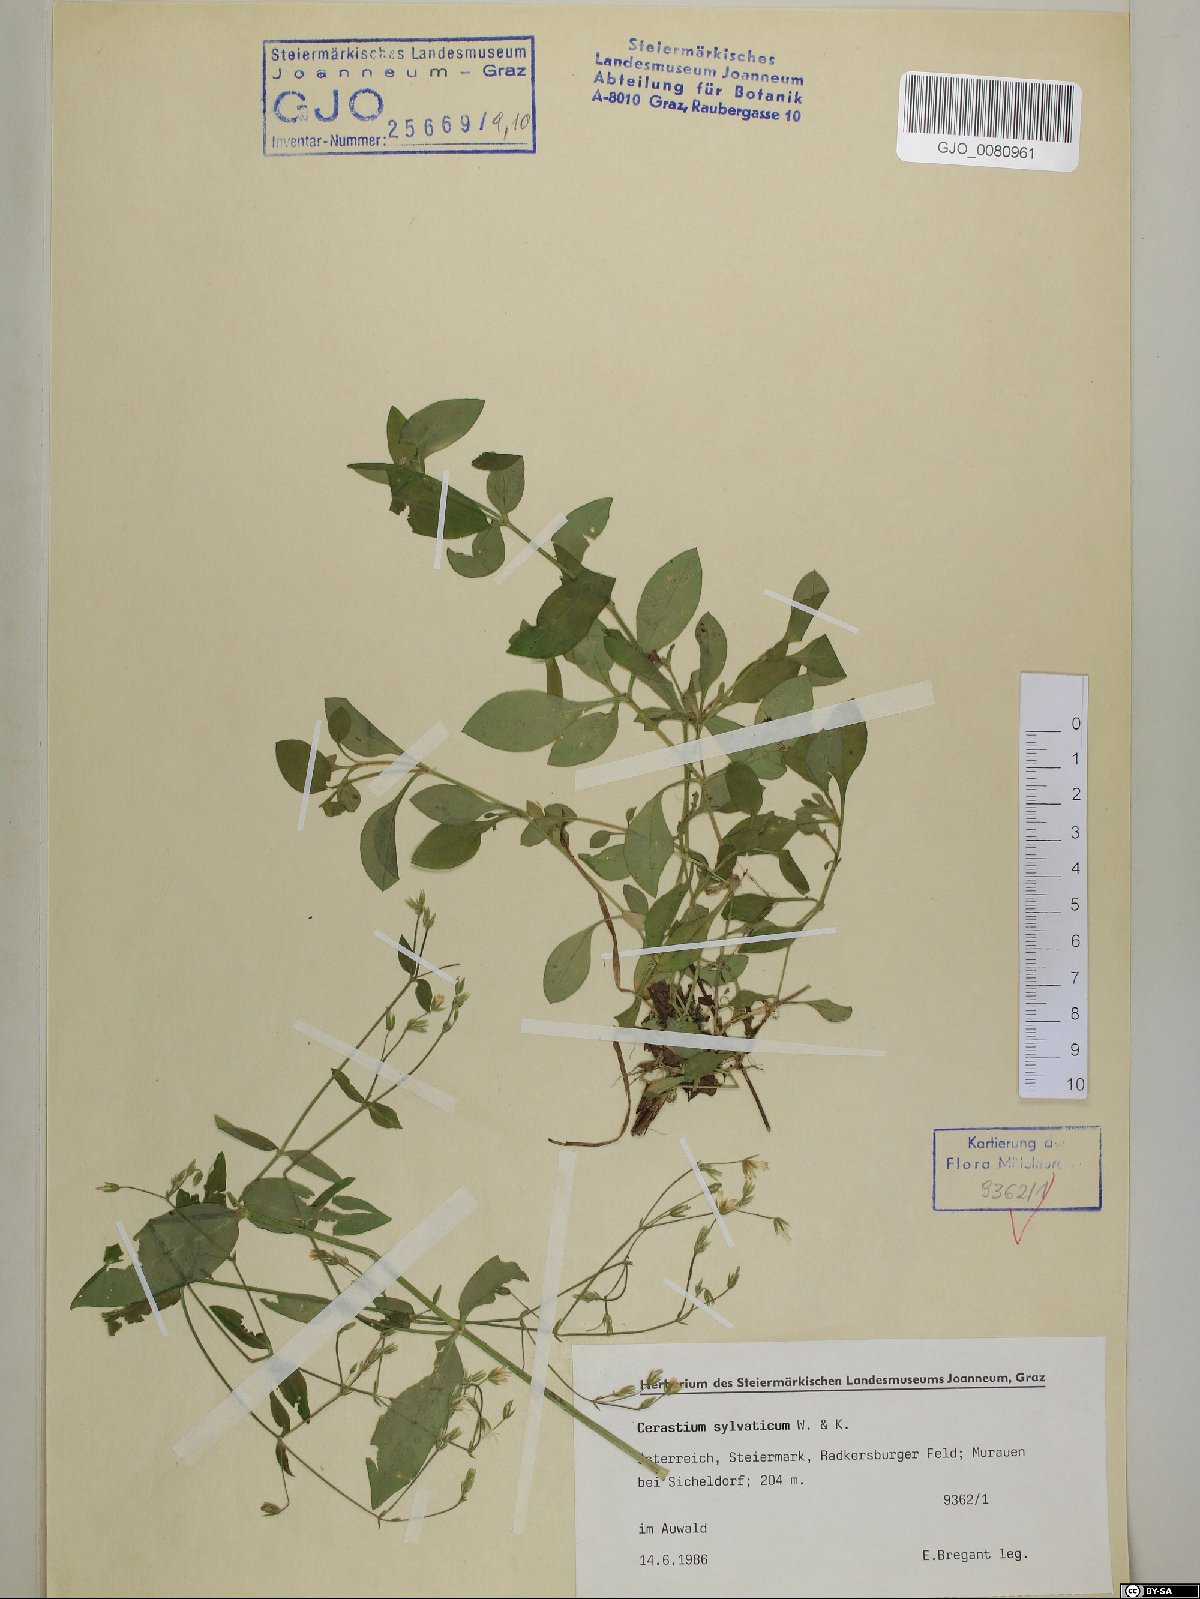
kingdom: Plantae
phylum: Tracheophyta
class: Magnoliopsida
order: Caryophyllales
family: Caryophyllaceae
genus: Cerastium
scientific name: Cerastium sylvaticum
